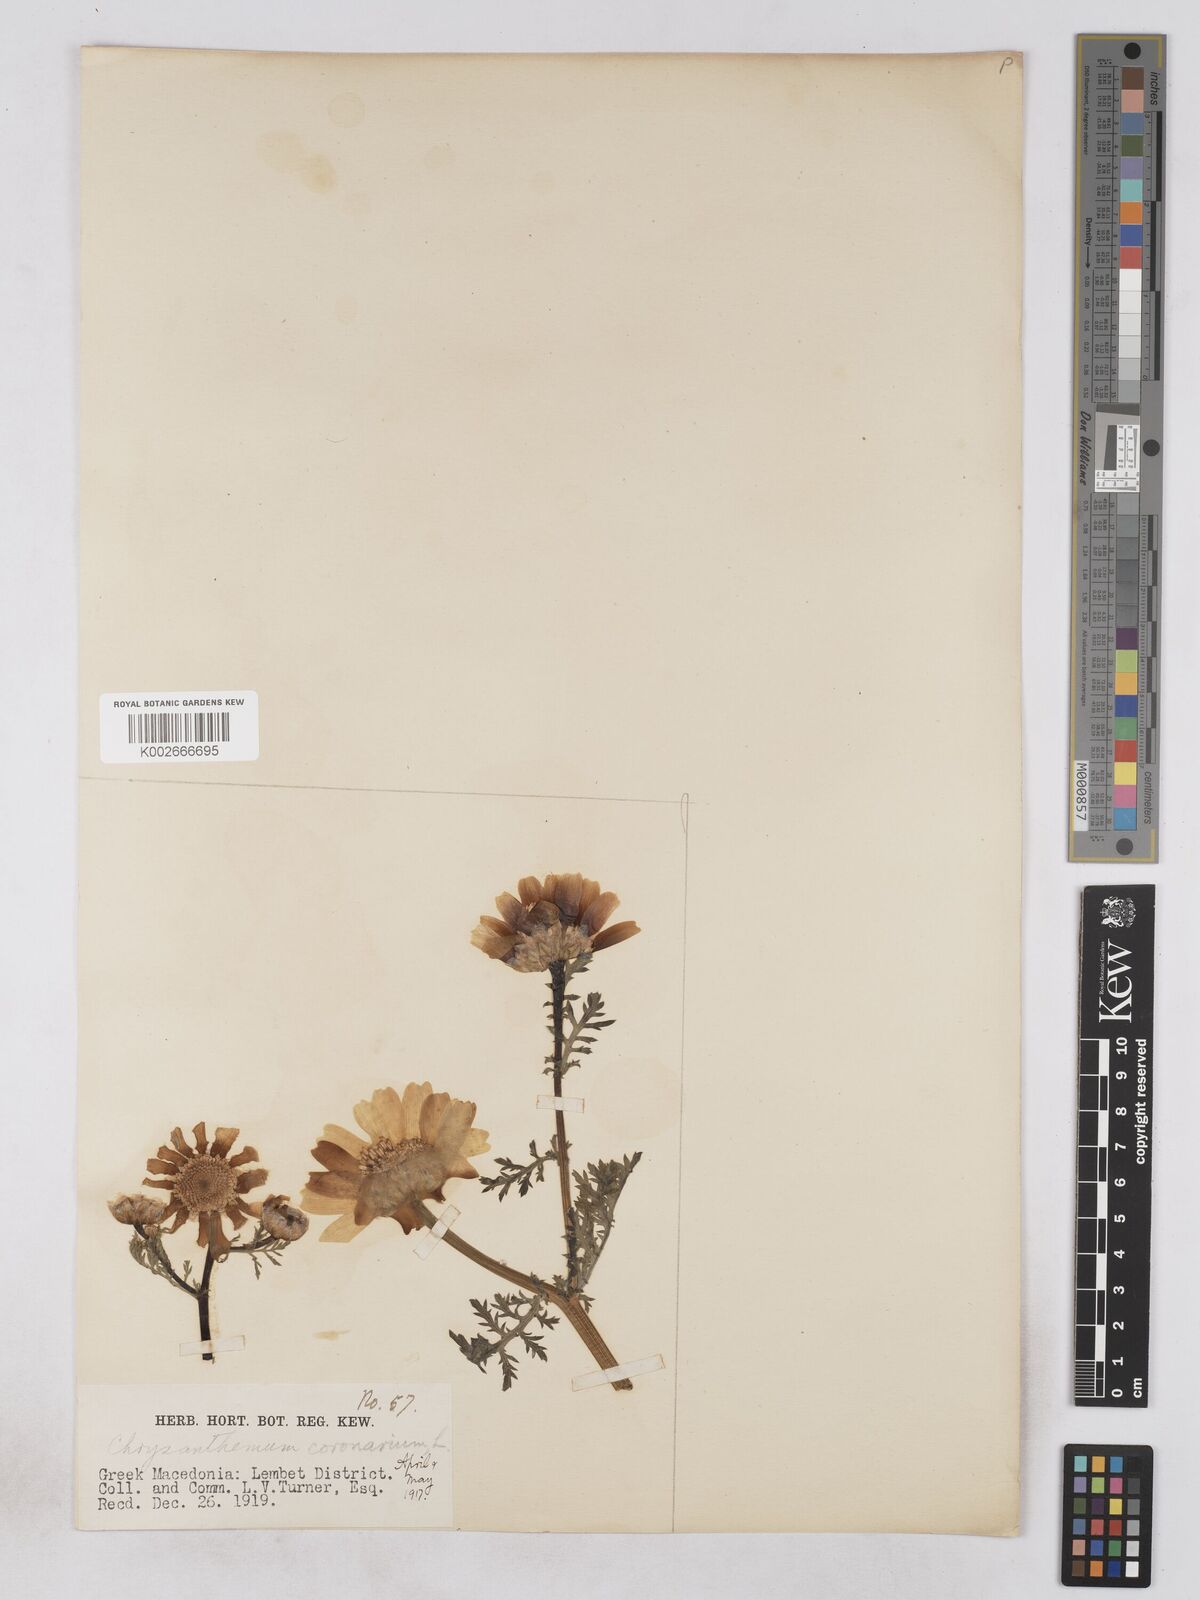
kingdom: Plantae
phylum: Tracheophyta
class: Magnoliopsida
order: Asterales
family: Asteraceae
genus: Glebionis
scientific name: Glebionis coronaria
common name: Crowndaisy
